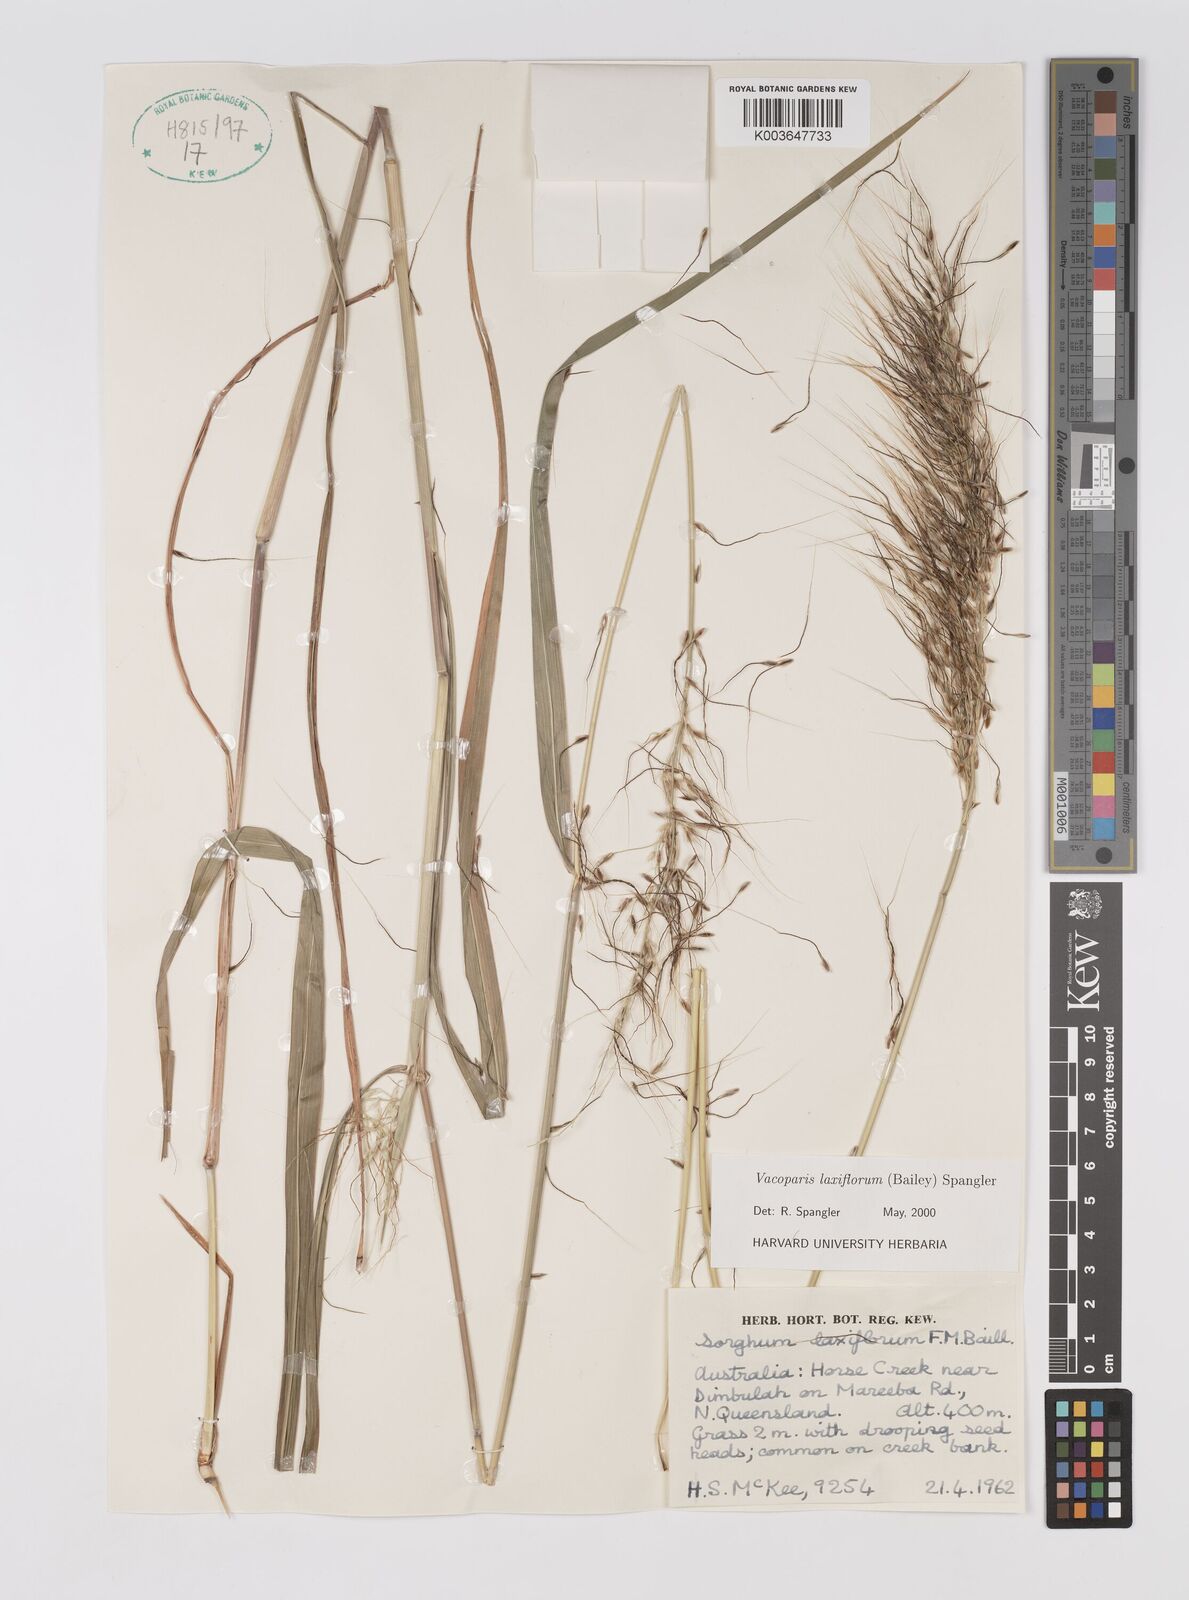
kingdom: Plantae
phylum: Tracheophyta
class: Liliopsida
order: Poales
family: Poaceae
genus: Sorghum
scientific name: Sorghum laxiflorum
